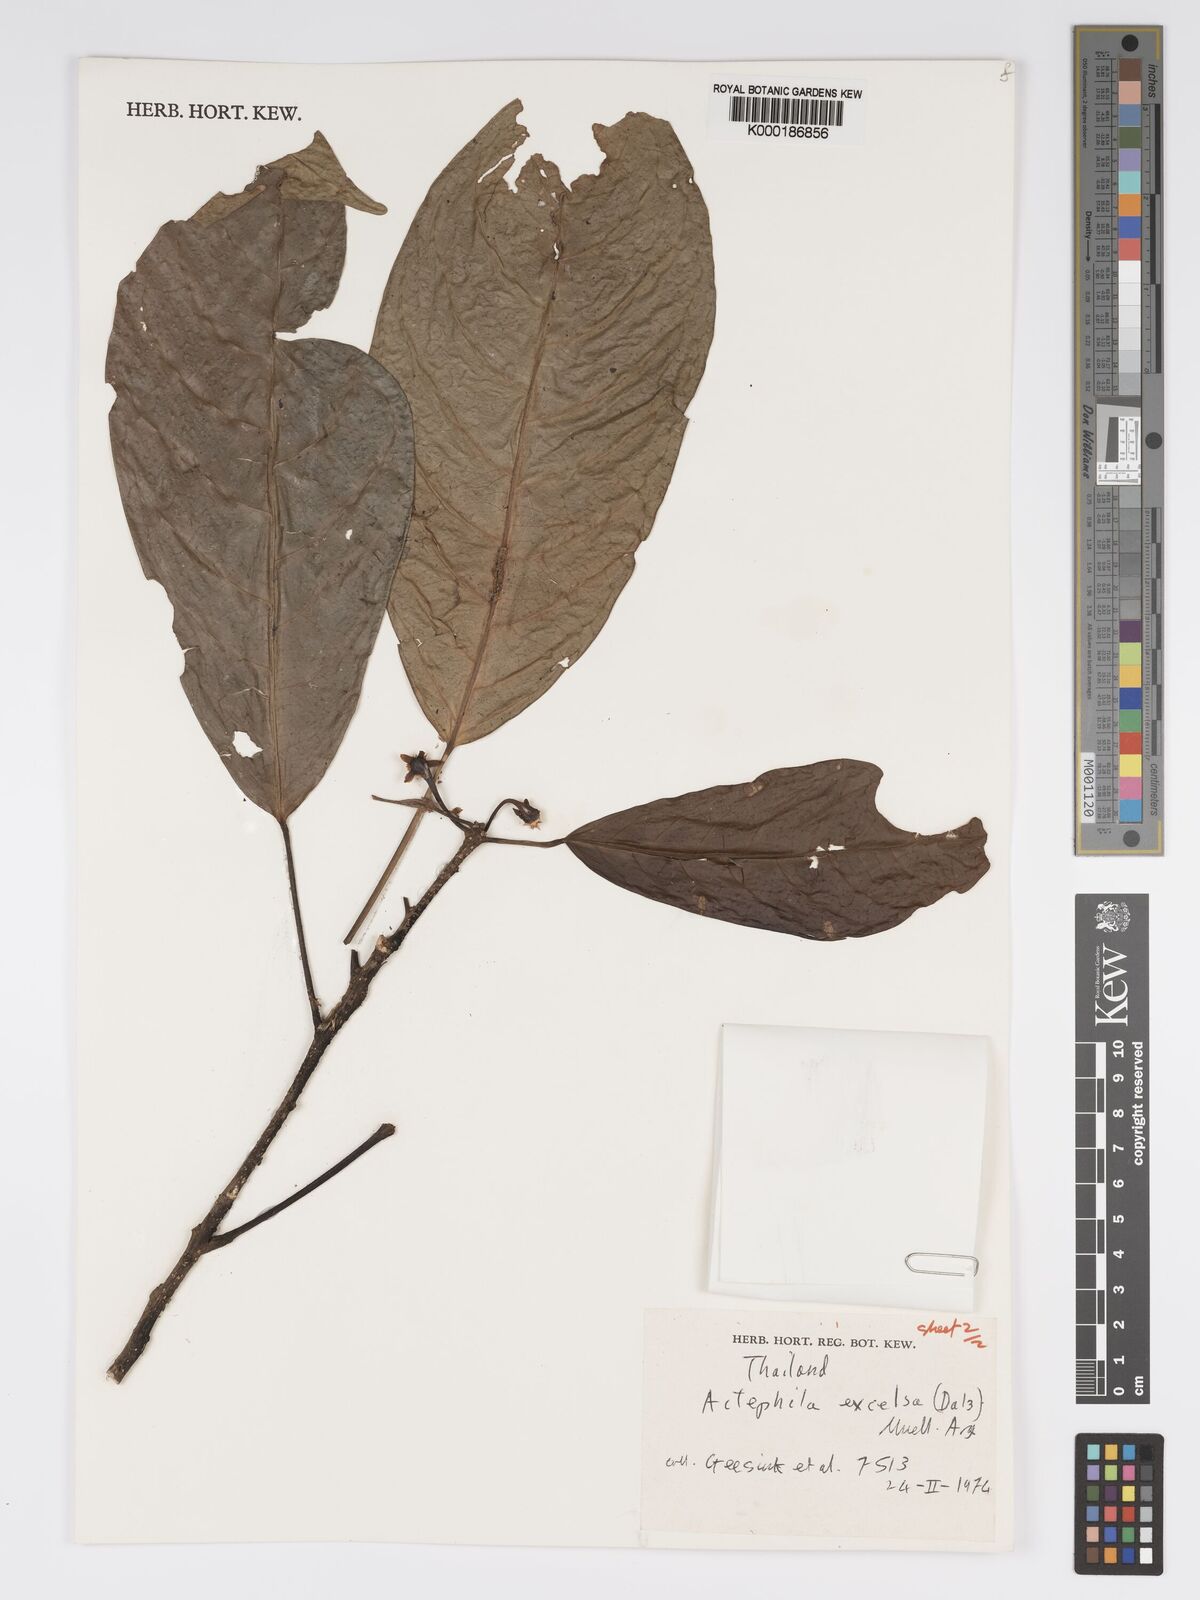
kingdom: Plantae
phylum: Tracheophyta
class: Magnoliopsida
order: Malpighiales
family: Phyllanthaceae
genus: Actephila
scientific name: Actephila
